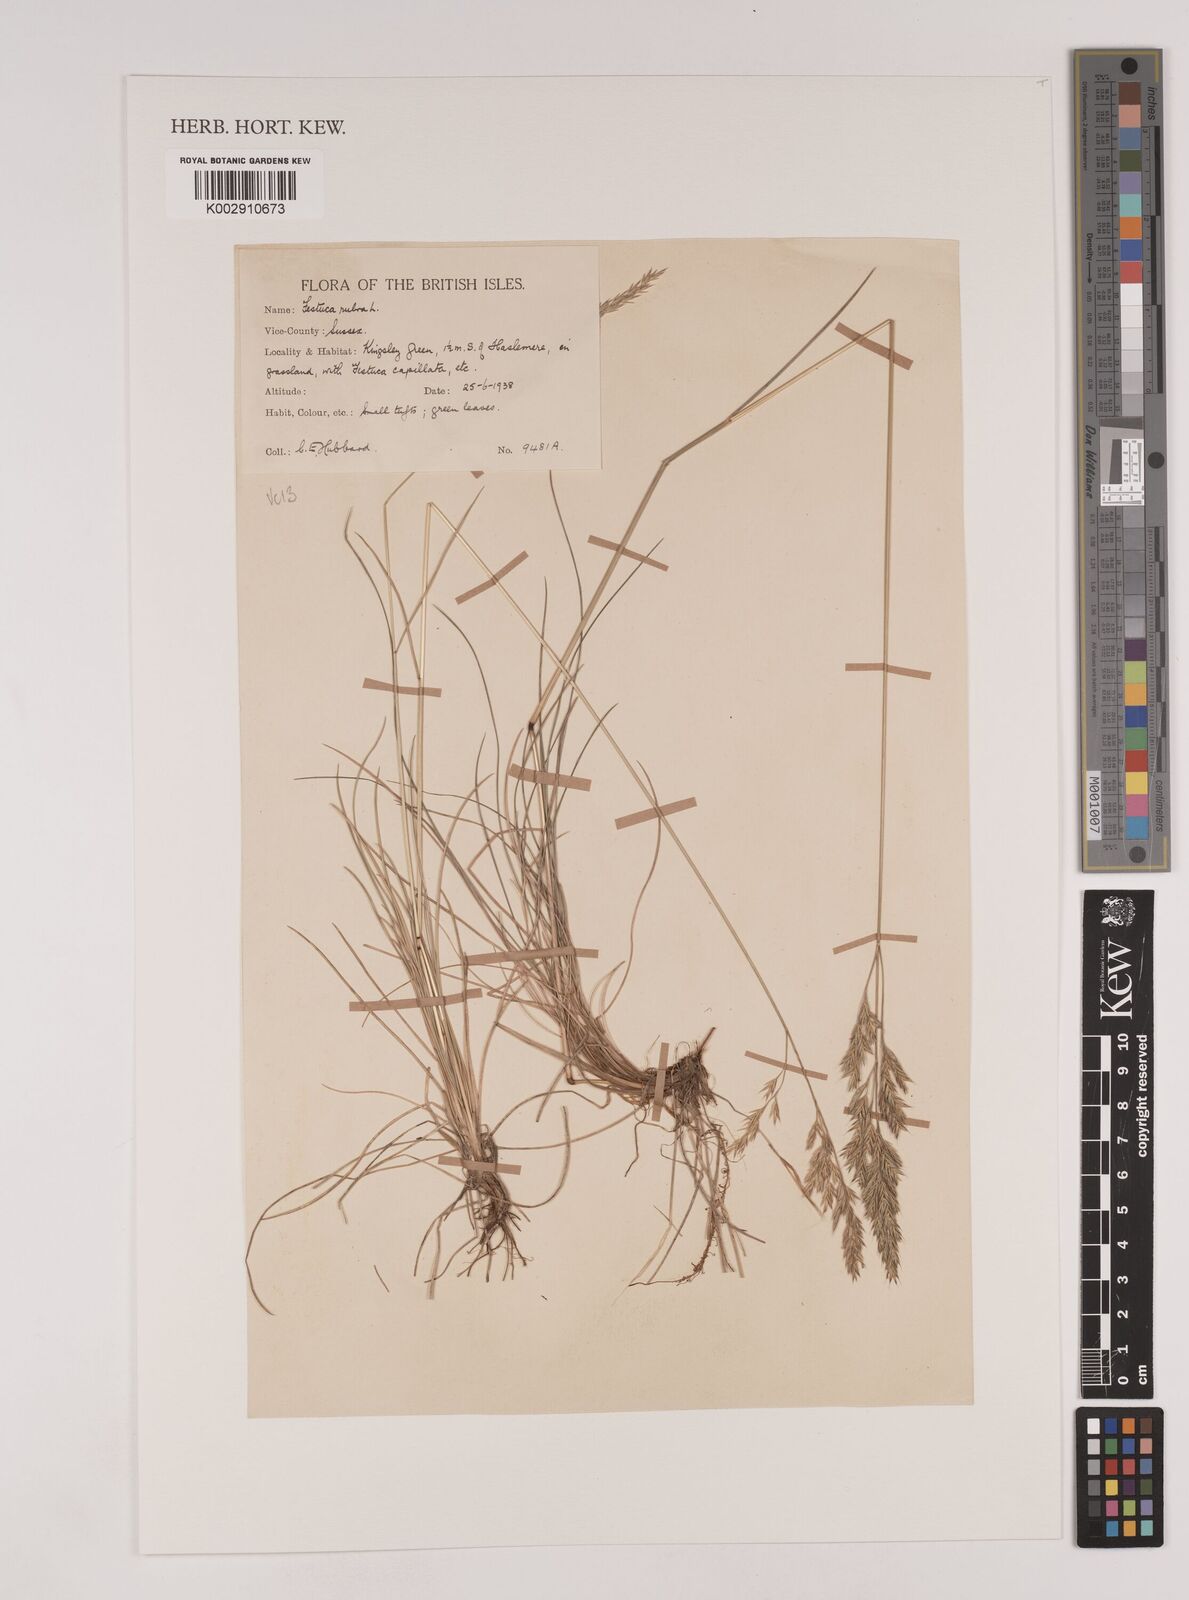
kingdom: Plantae
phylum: Tracheophyta
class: Liliopsida
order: Poales
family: Poaceae
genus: Festuca
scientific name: Festuca rubra
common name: Red fescue
